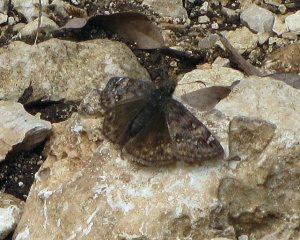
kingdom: Animalia
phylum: Arthropoda
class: Insecta
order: Lepidoptera
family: Hesperiidae
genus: Gesta
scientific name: Gesta
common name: Juvenal's Duskywing
